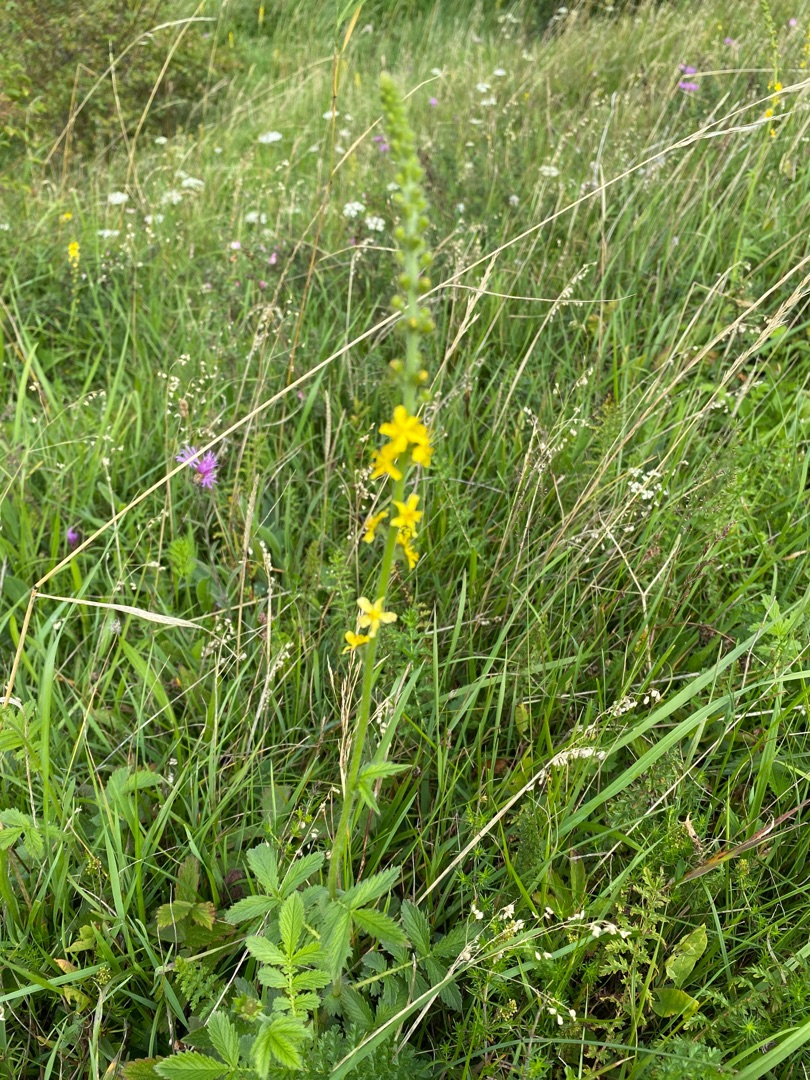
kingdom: Plantae
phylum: Tracheophyta
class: Magnoliopsida
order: Rosales
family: Rosaceae
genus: Agrimonia
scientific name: Agrimonia
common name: Agermåneslægten
